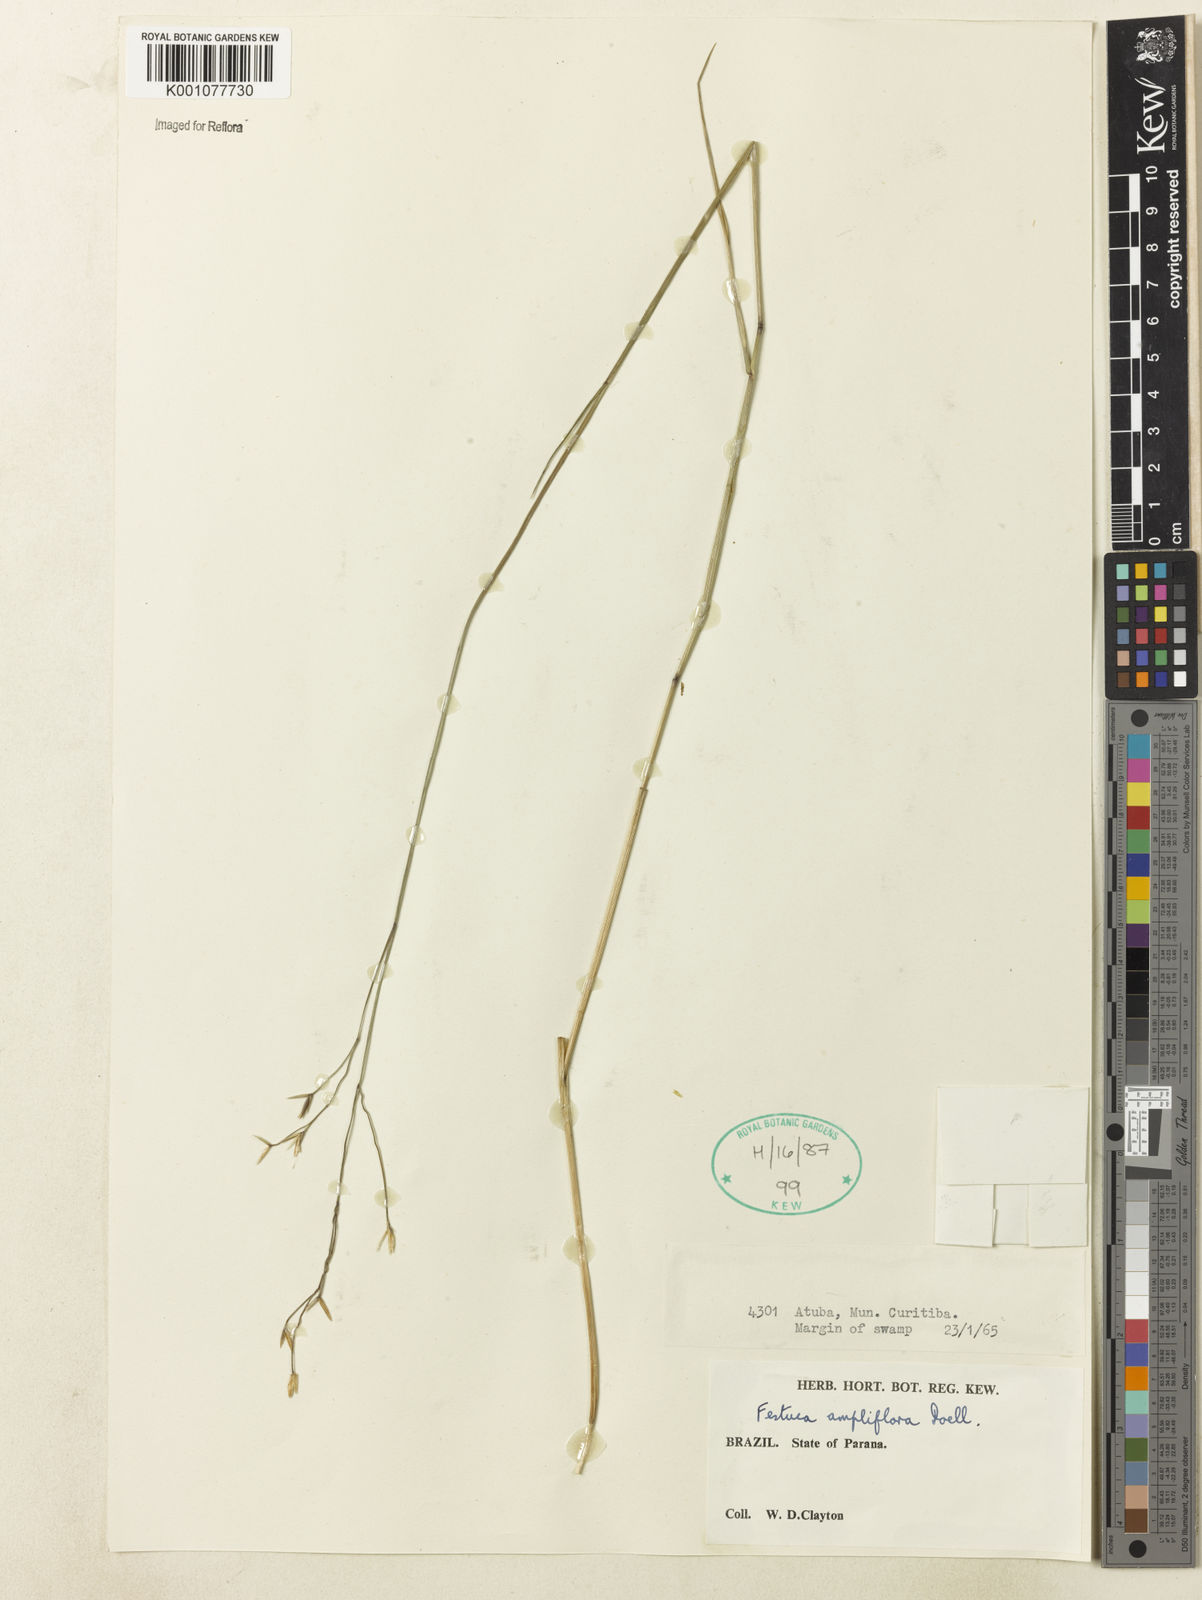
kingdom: Plantae
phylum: Tracheophyta
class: Liliopsida
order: Poales
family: Poaceae
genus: Festuca
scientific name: Festuca fimbriata
